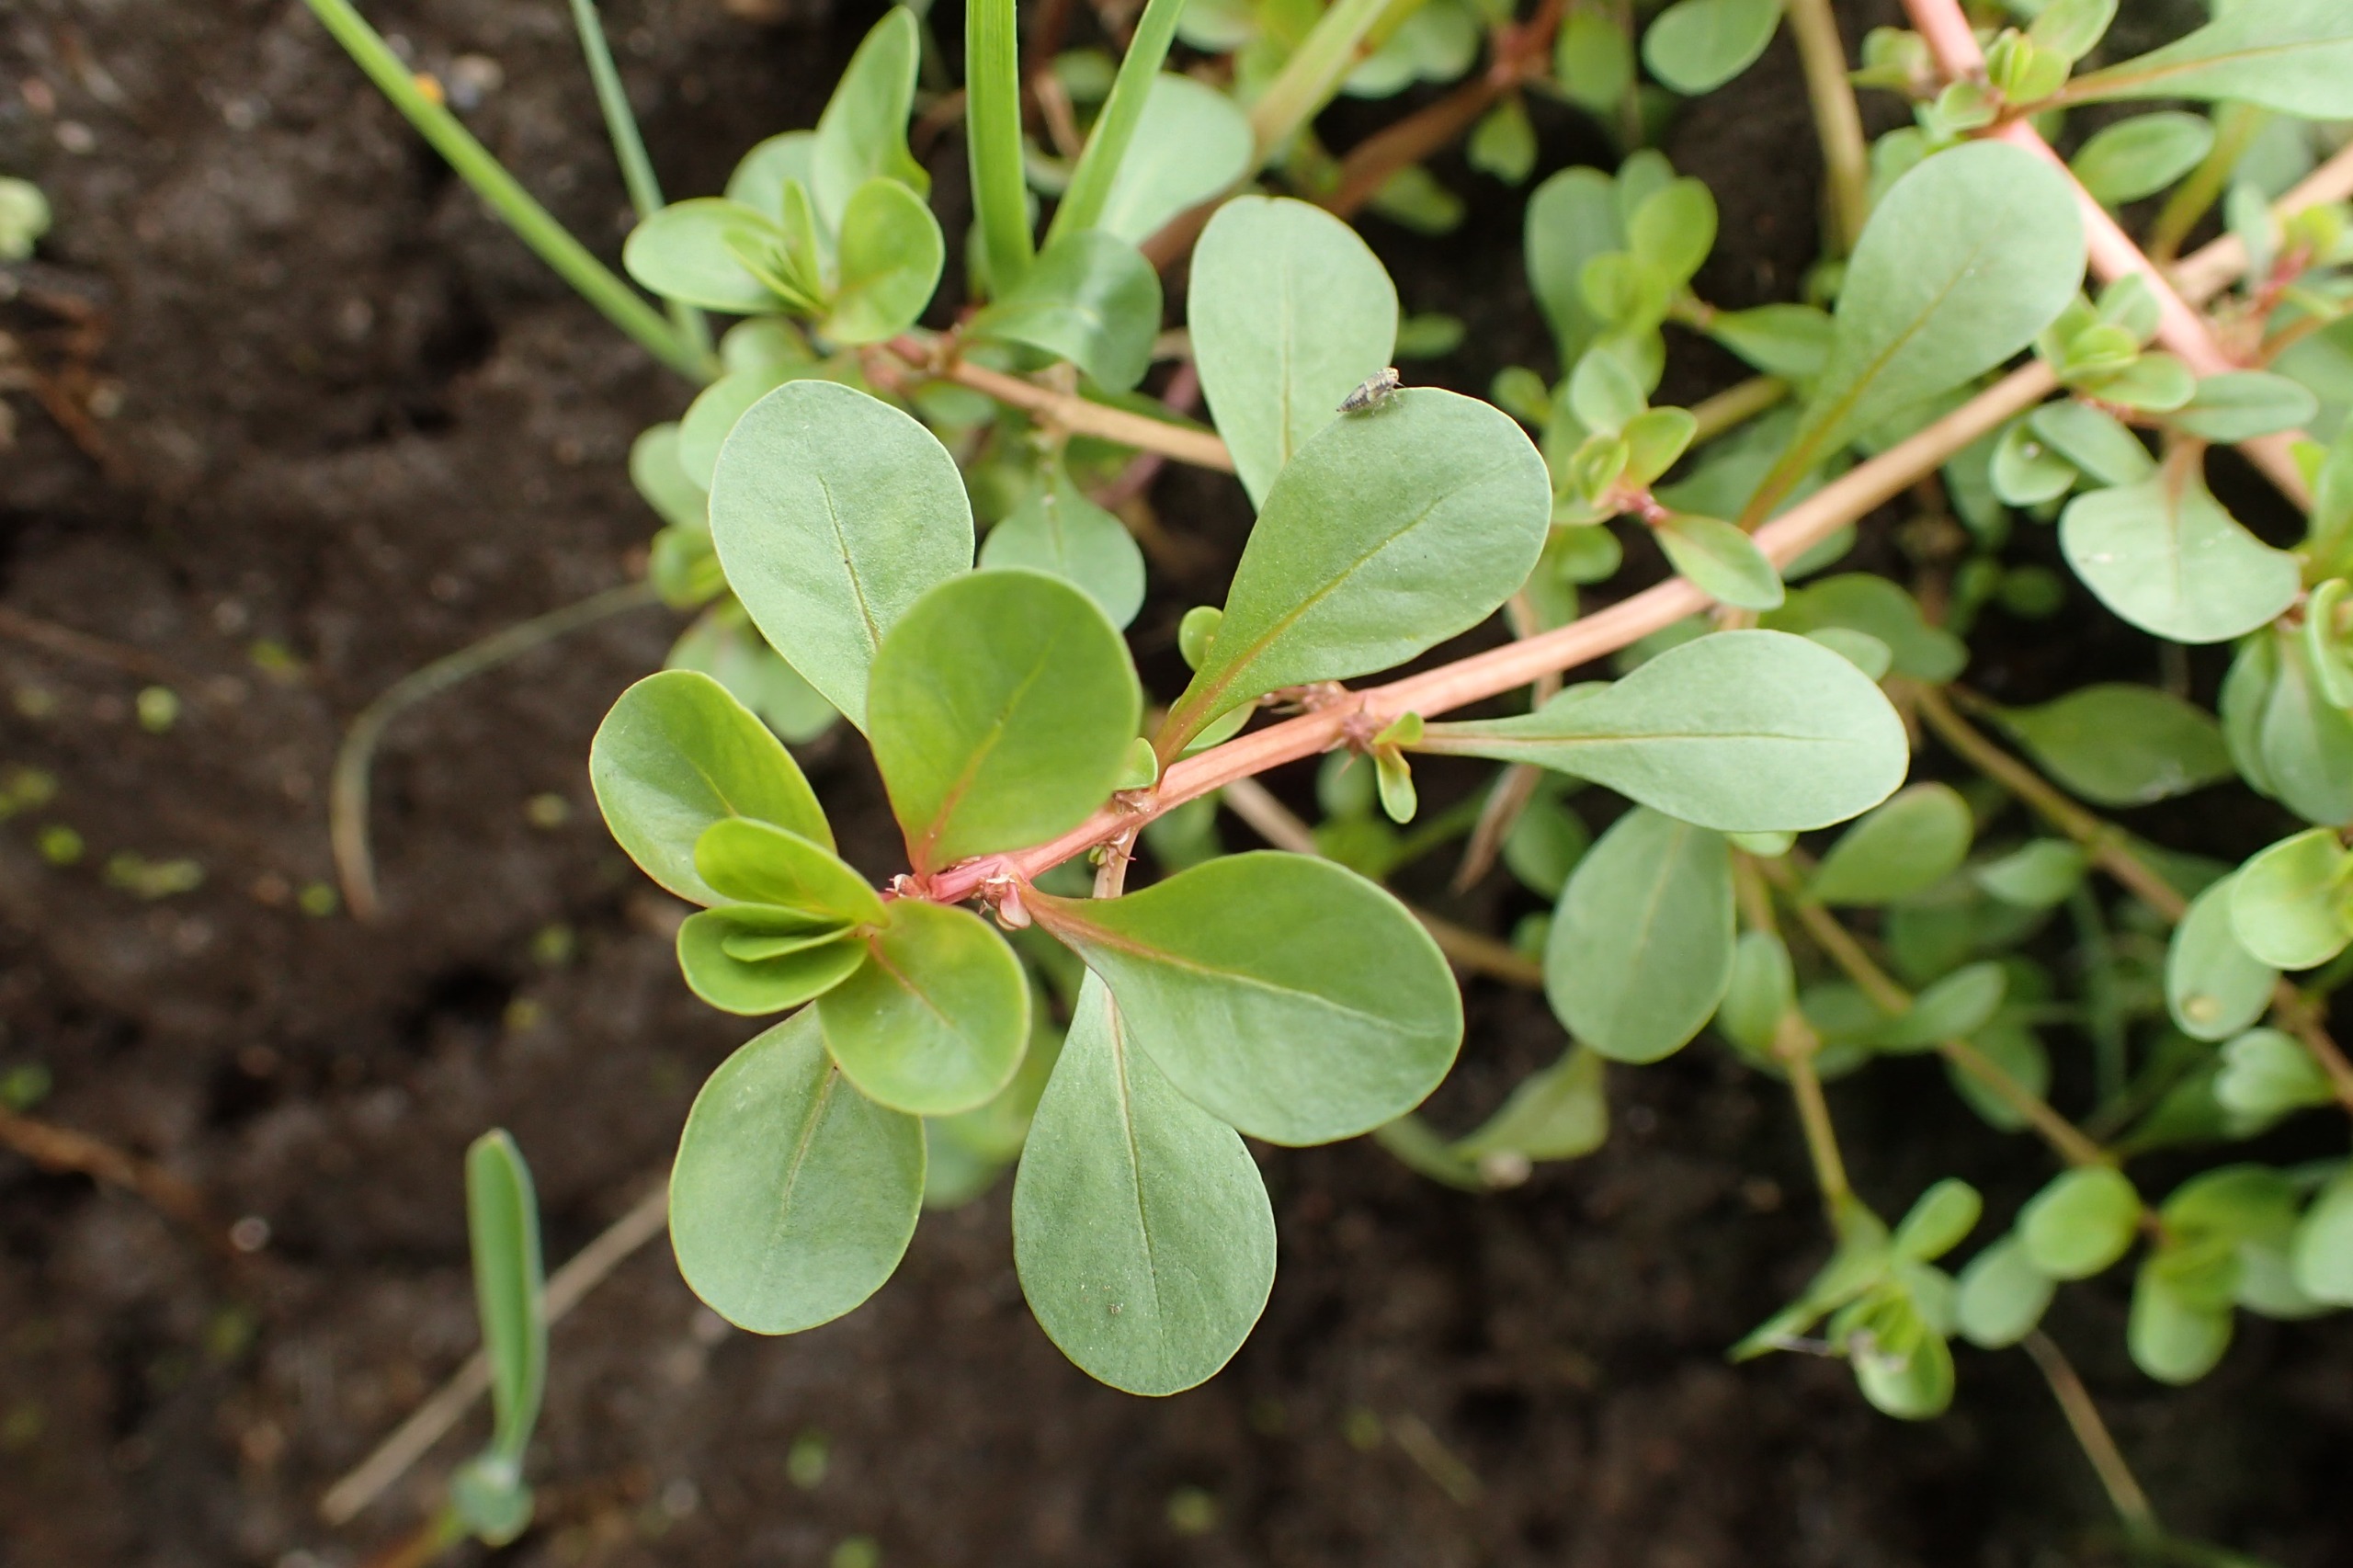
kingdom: Plantae
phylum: Tracheophyta
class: Magnoliopsida
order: Myrtales
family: Lythraceae
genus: Lythrum
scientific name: Lythrum portula
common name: Vandportulak
